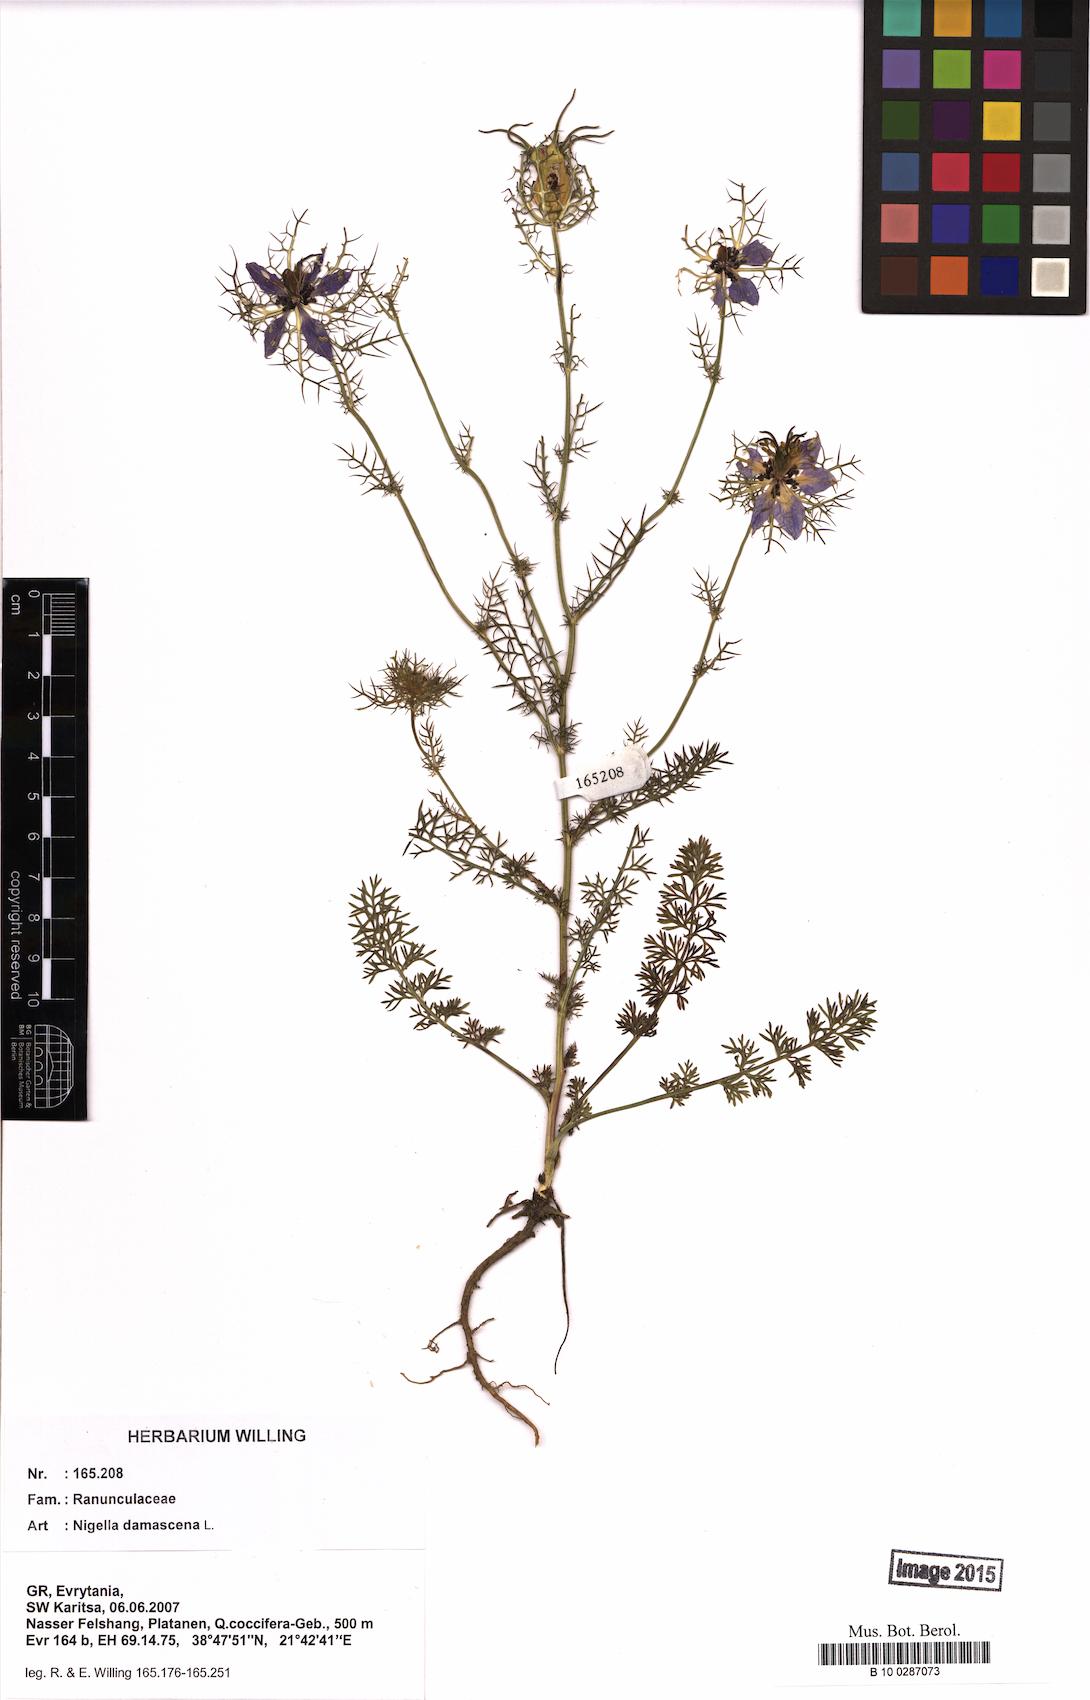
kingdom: Plantae
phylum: Tracheophyta
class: Magnoliopsida
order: Ranunculales
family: Ranunculaceae
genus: Nigella
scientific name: Nigella damascena
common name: Love-in-a-mist
